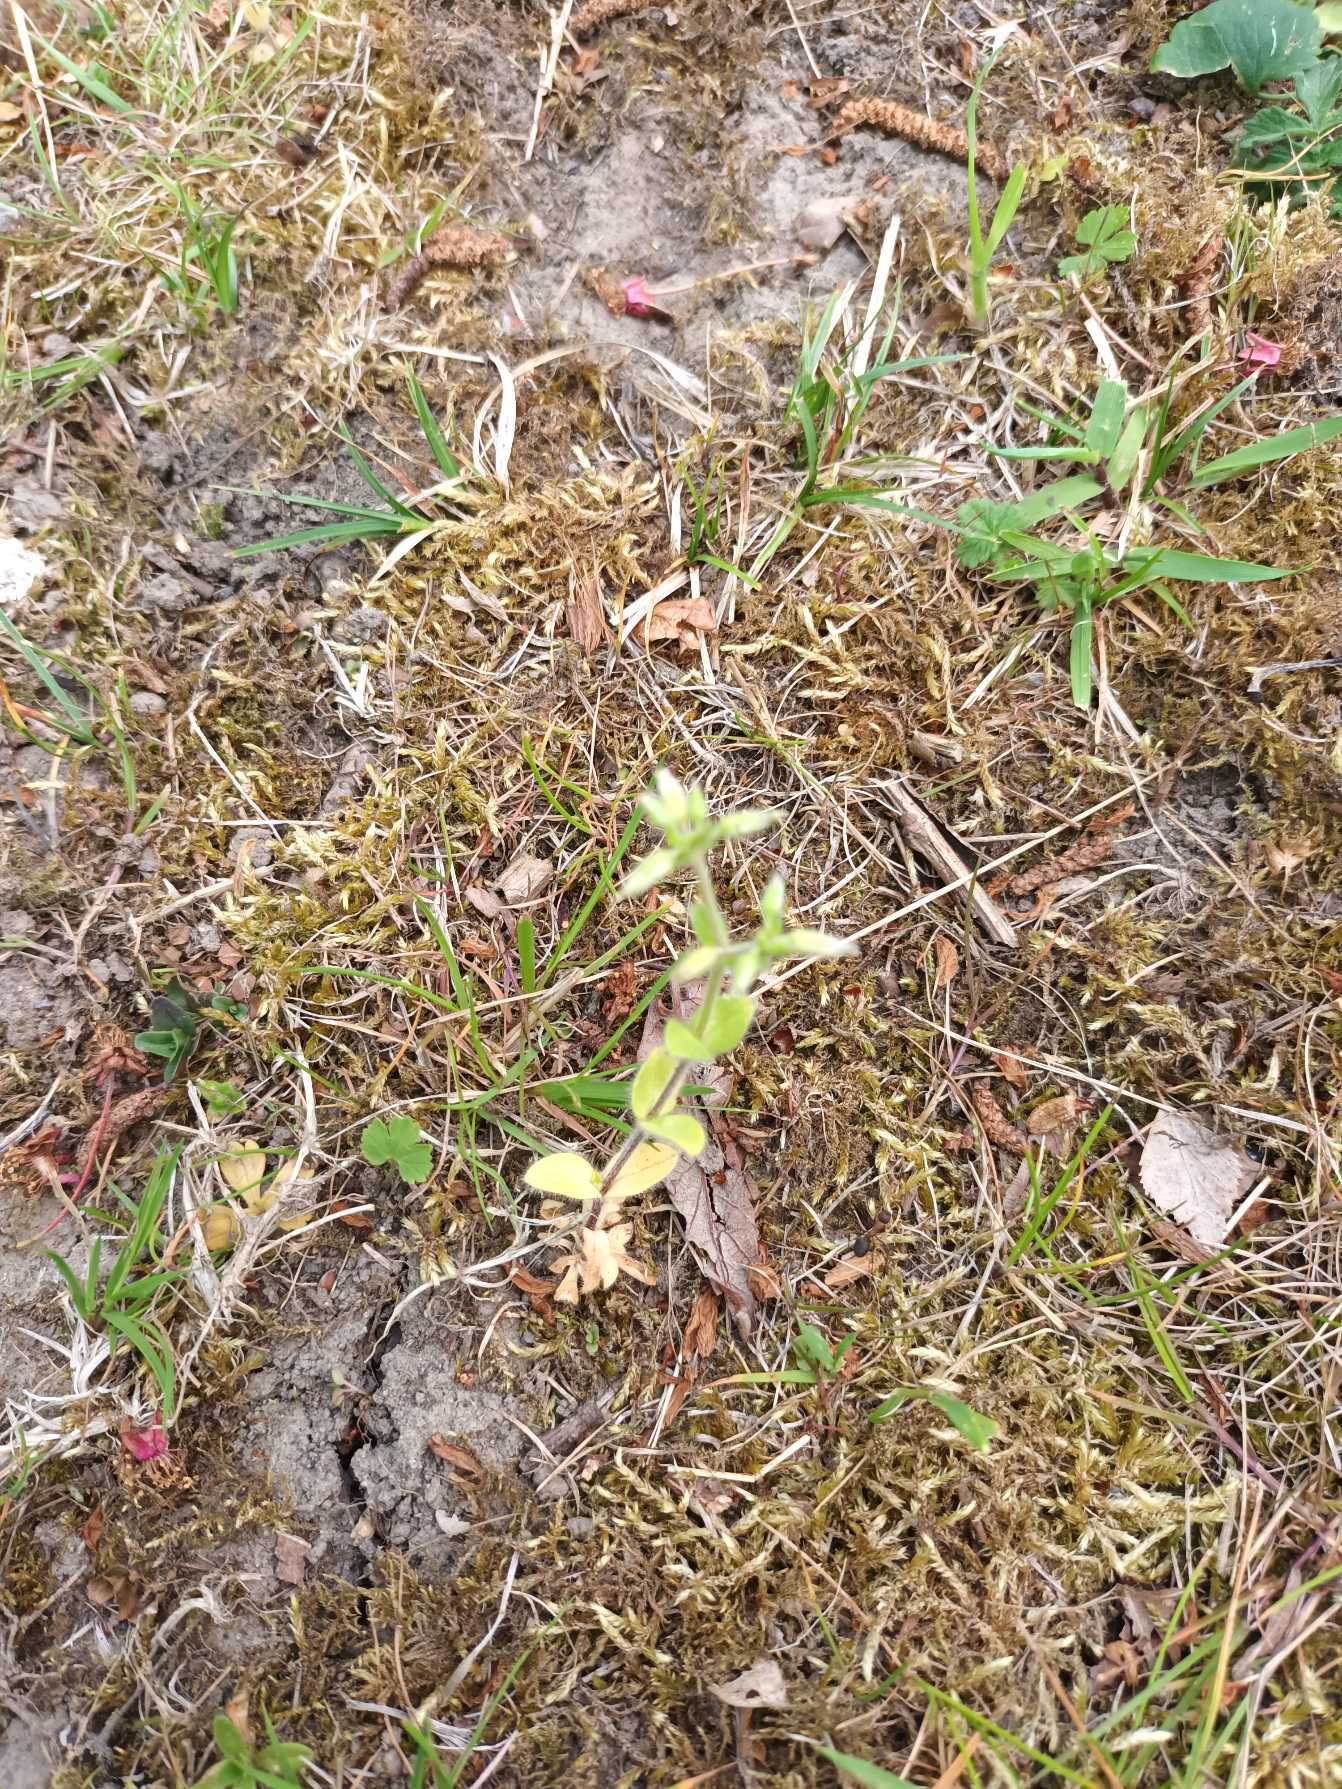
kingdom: Plantae
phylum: Tracheophyta
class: Magnoliopsida
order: Caryophyllales
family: Caryophyllaceae
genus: Cerastium
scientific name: Cerastium glomeratum
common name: Opret hønsetarm
